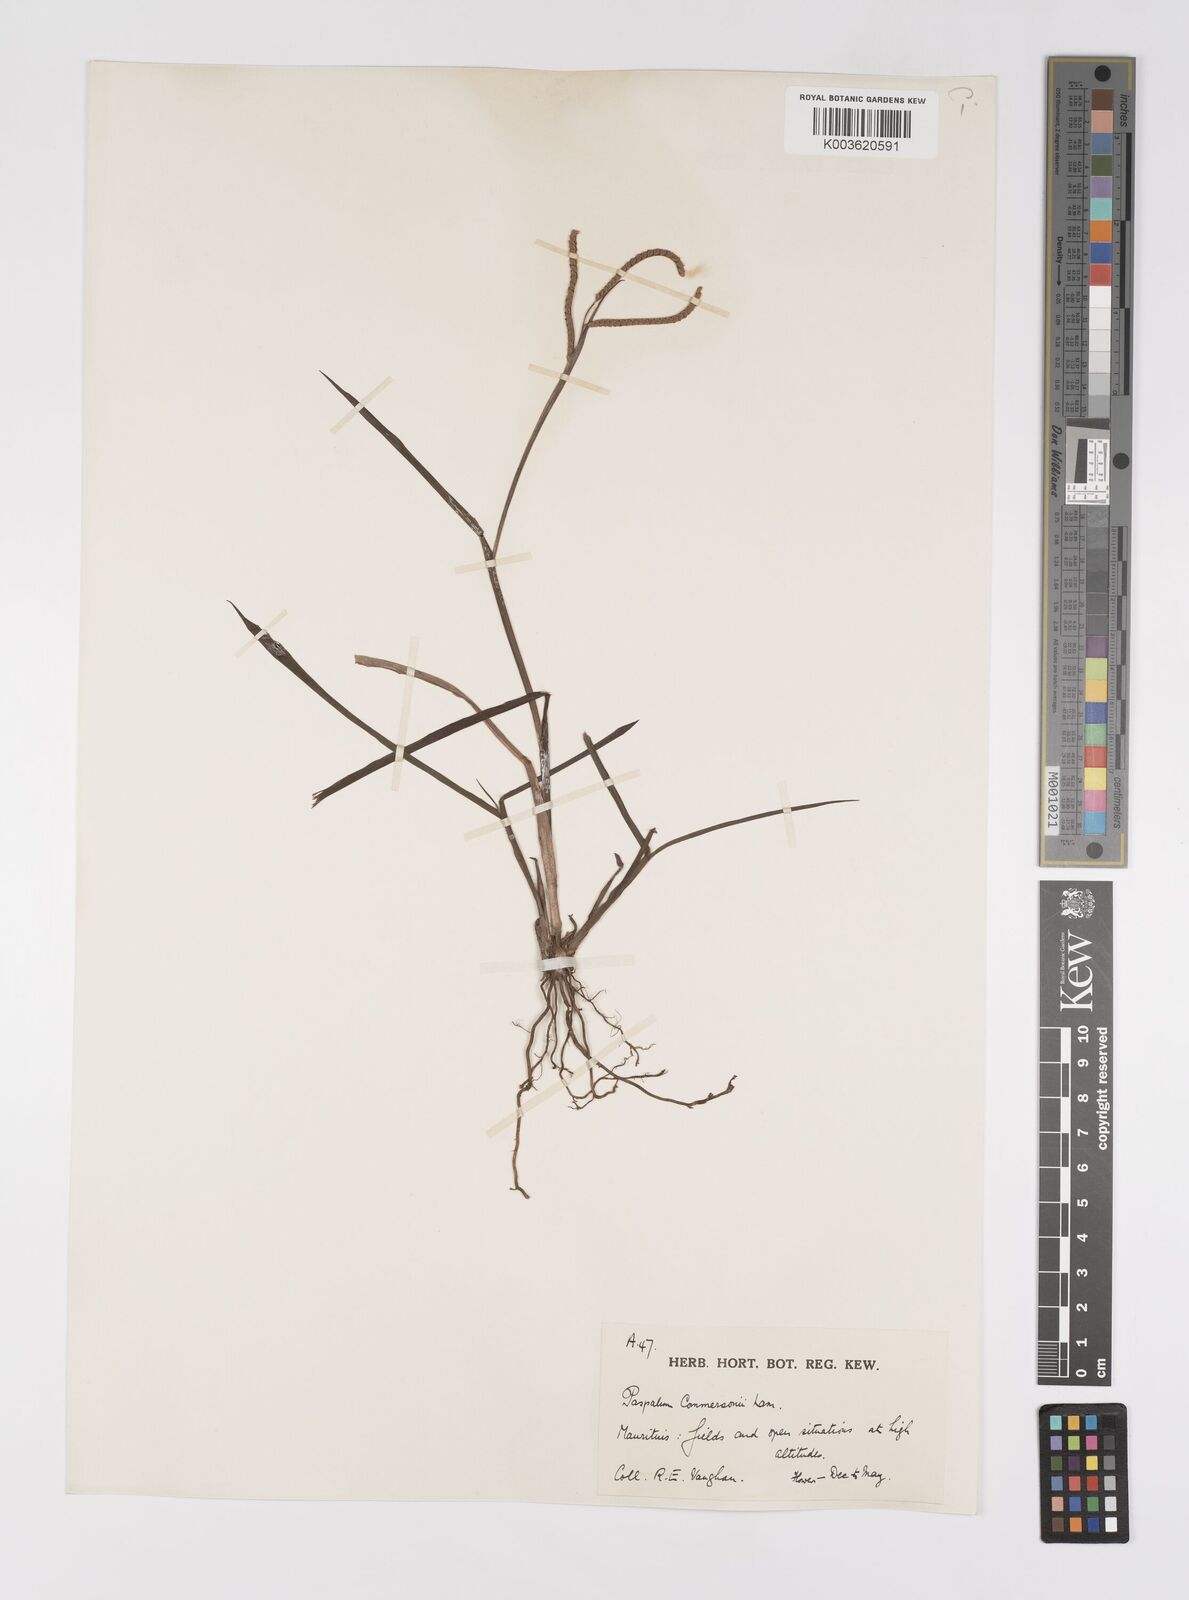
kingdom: Plantae
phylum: Tracheophyta
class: Liliopsida
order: Poales
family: Poaceae
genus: Paspalum
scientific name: Paspalum scrobiculatum
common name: Kodo millet
